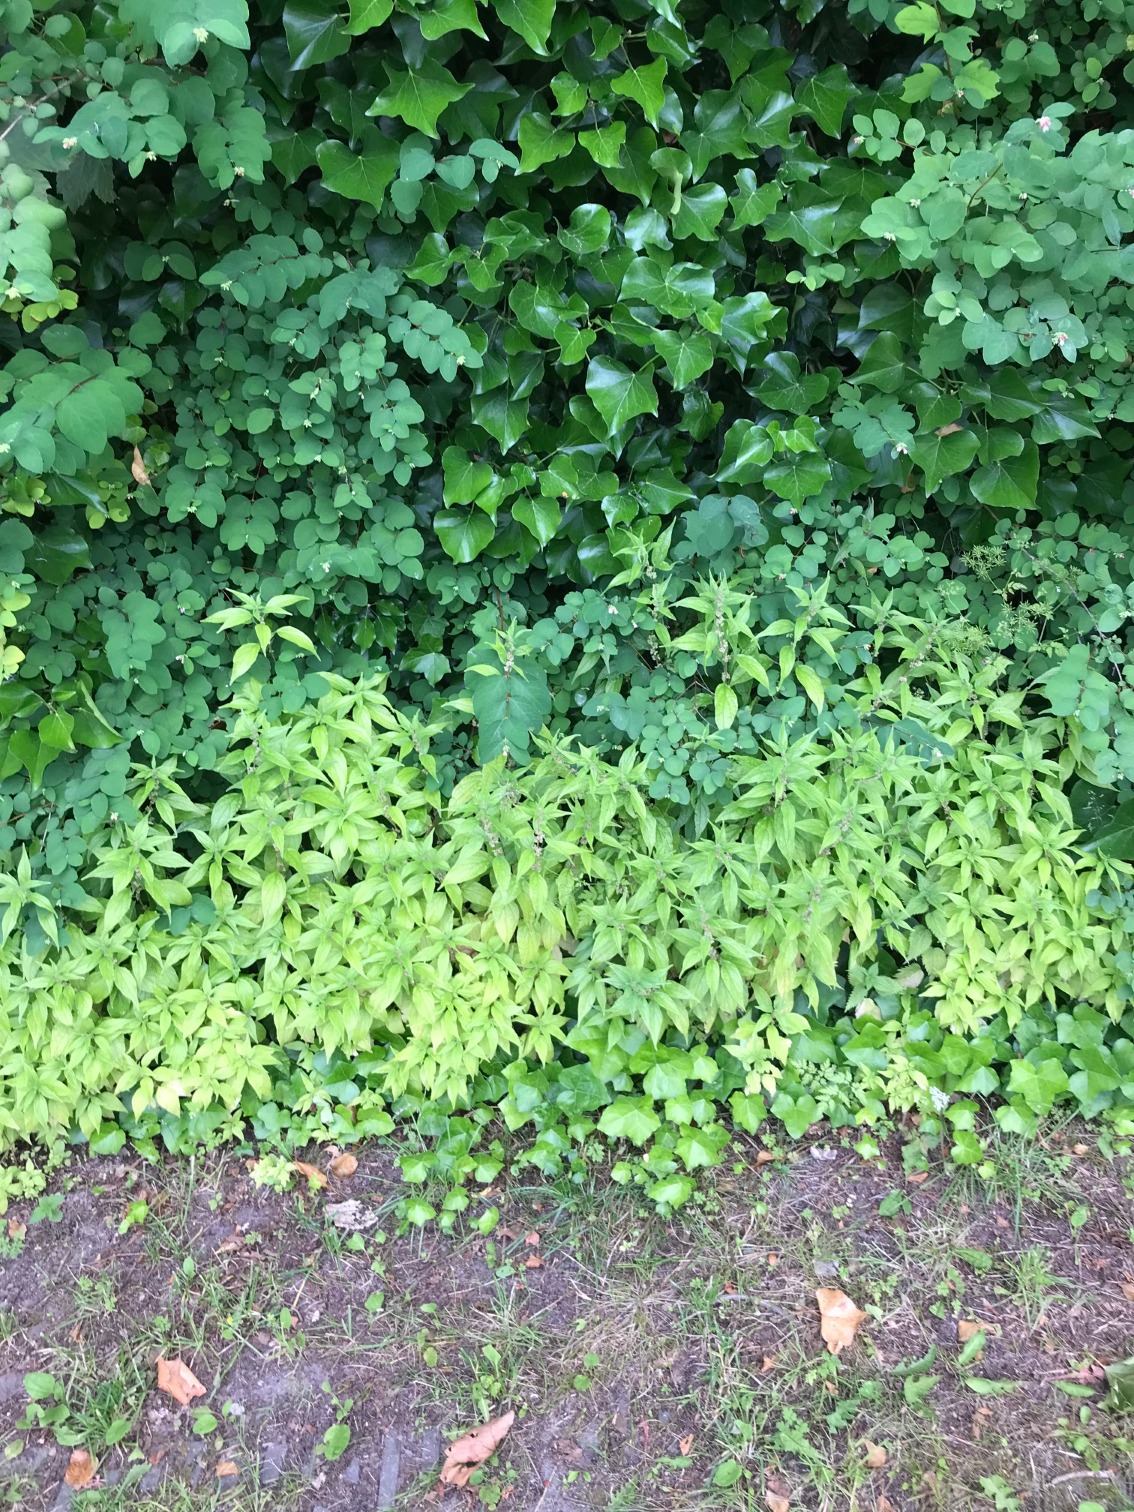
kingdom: Plantae
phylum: Tracheophyta
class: Magnoliopsida
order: Rosales
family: Urticaceae
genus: Parietaria
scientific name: Parietaria officinalis
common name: Almindelig springknap
